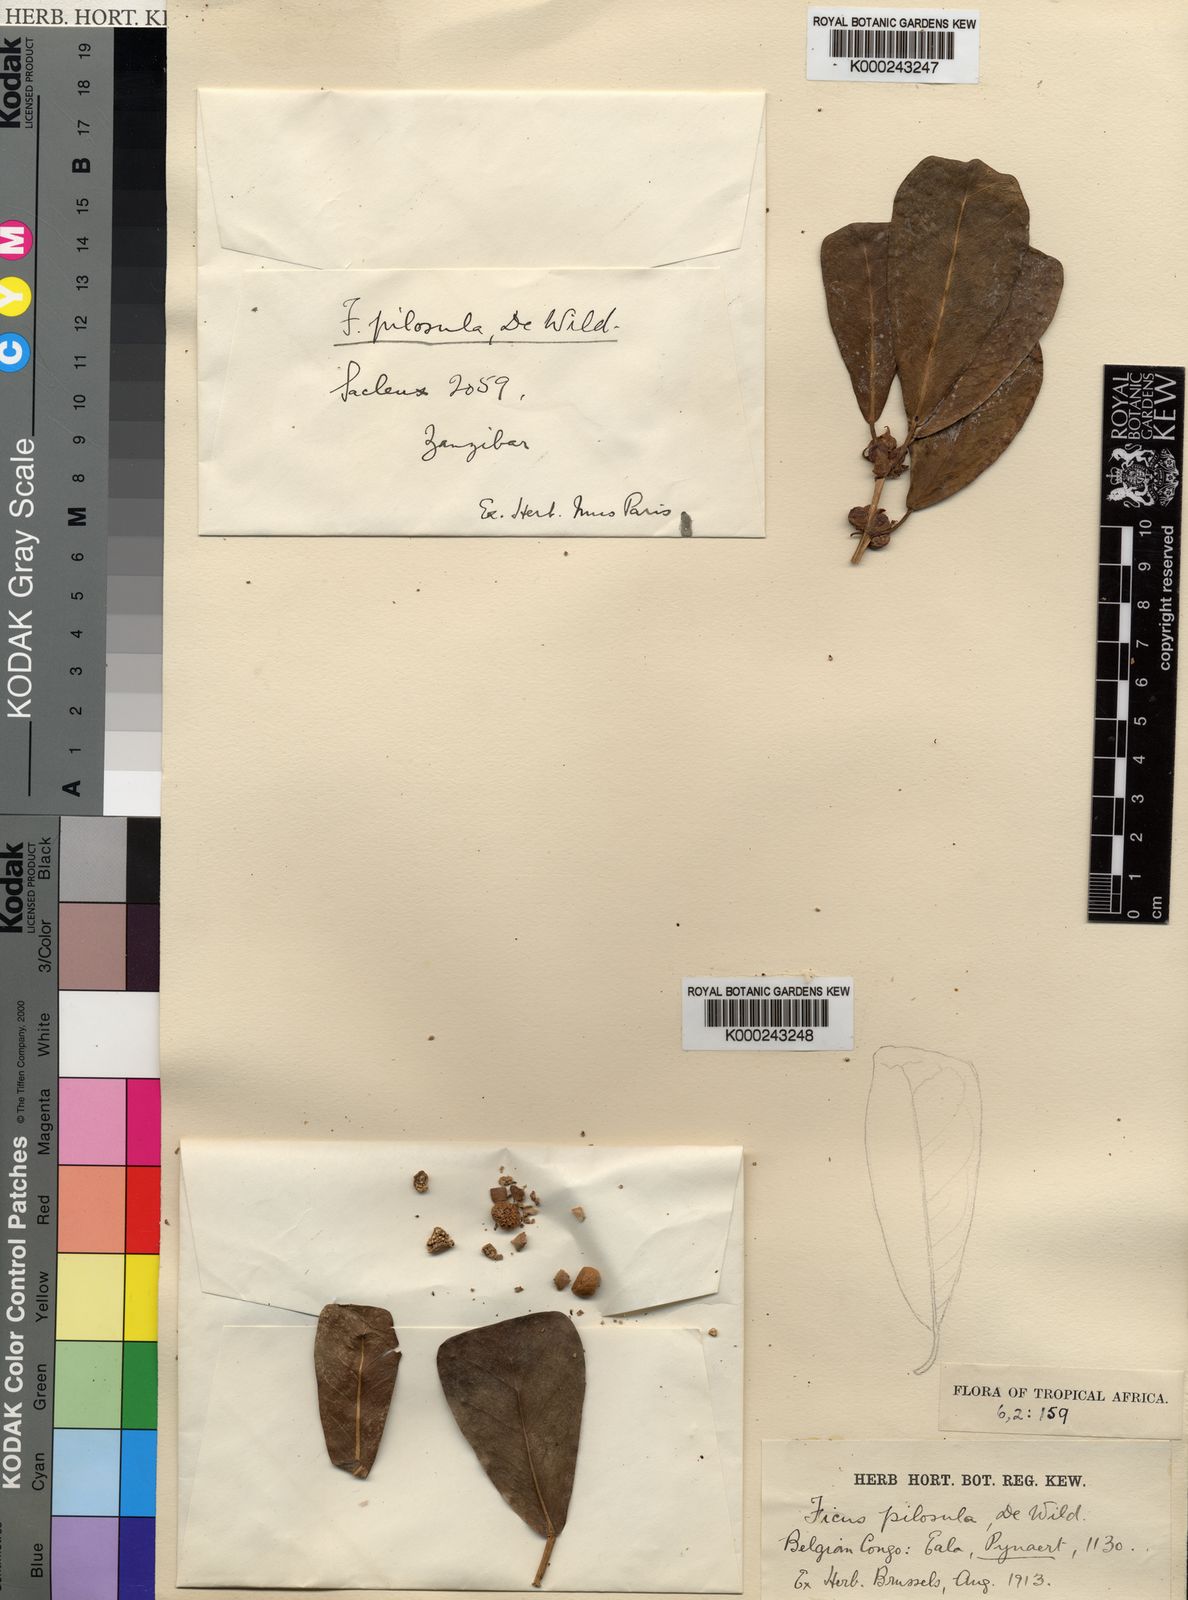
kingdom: Plantae
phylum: Tracheophyta
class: Magnoliopsida
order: Rosales
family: Moraceae
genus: Ficus
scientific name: Ficus craterostoma
